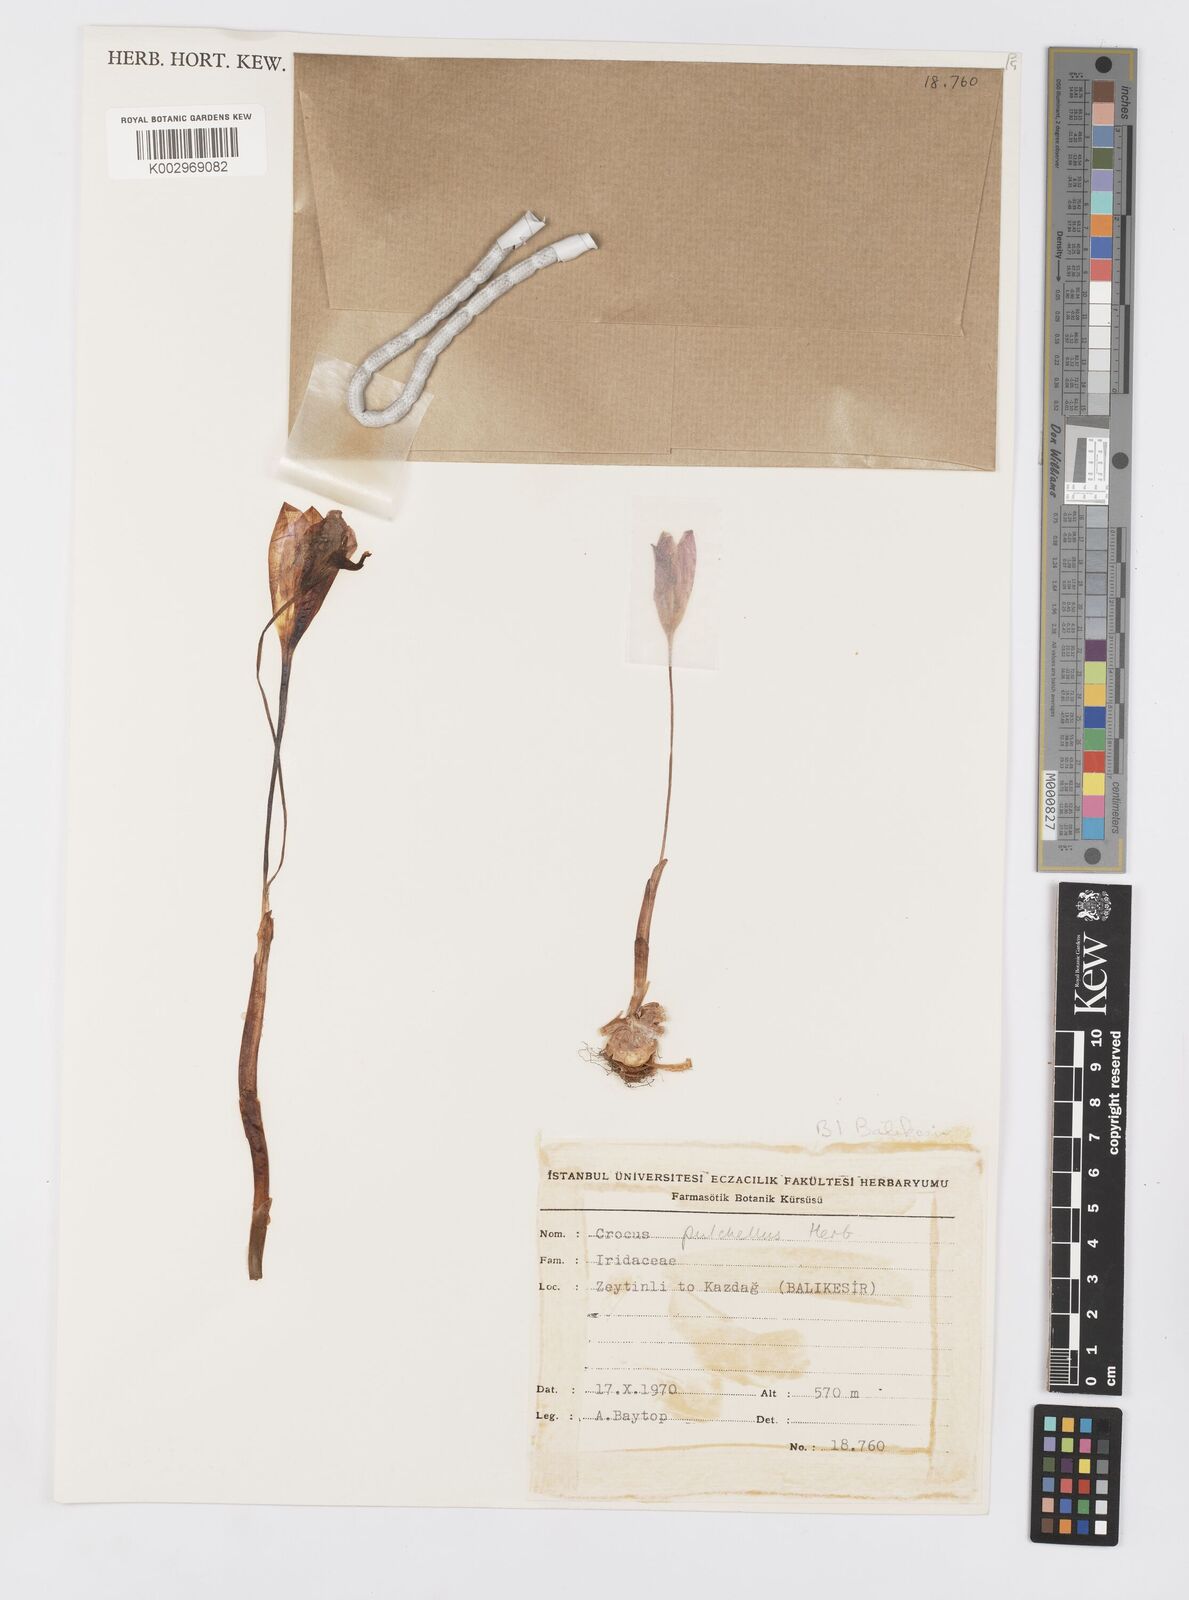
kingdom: Plantae
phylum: Tracheophyta
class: Liliopsida
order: Asparagales
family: Iridaceae
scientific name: Iridaceae
